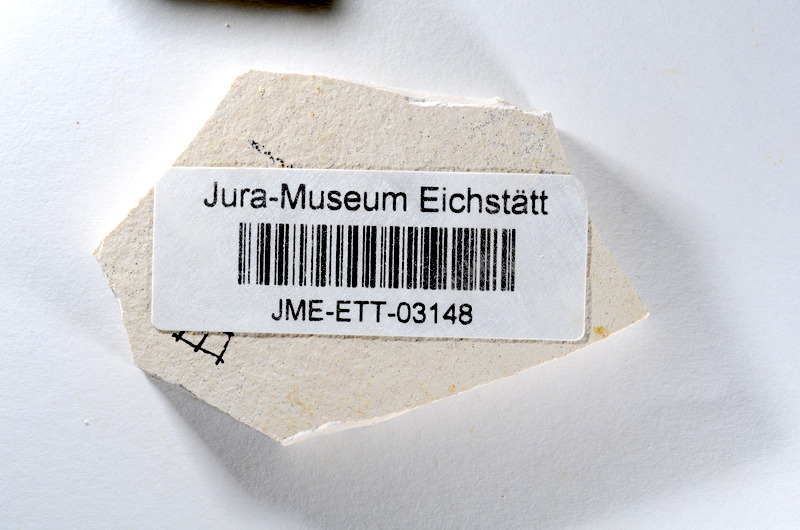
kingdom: Animalia
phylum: Chordata
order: Salmoniformes
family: Orthogonikleithridae
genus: Orthogonikleithrus
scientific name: Orthogonikleithrus hoelli
